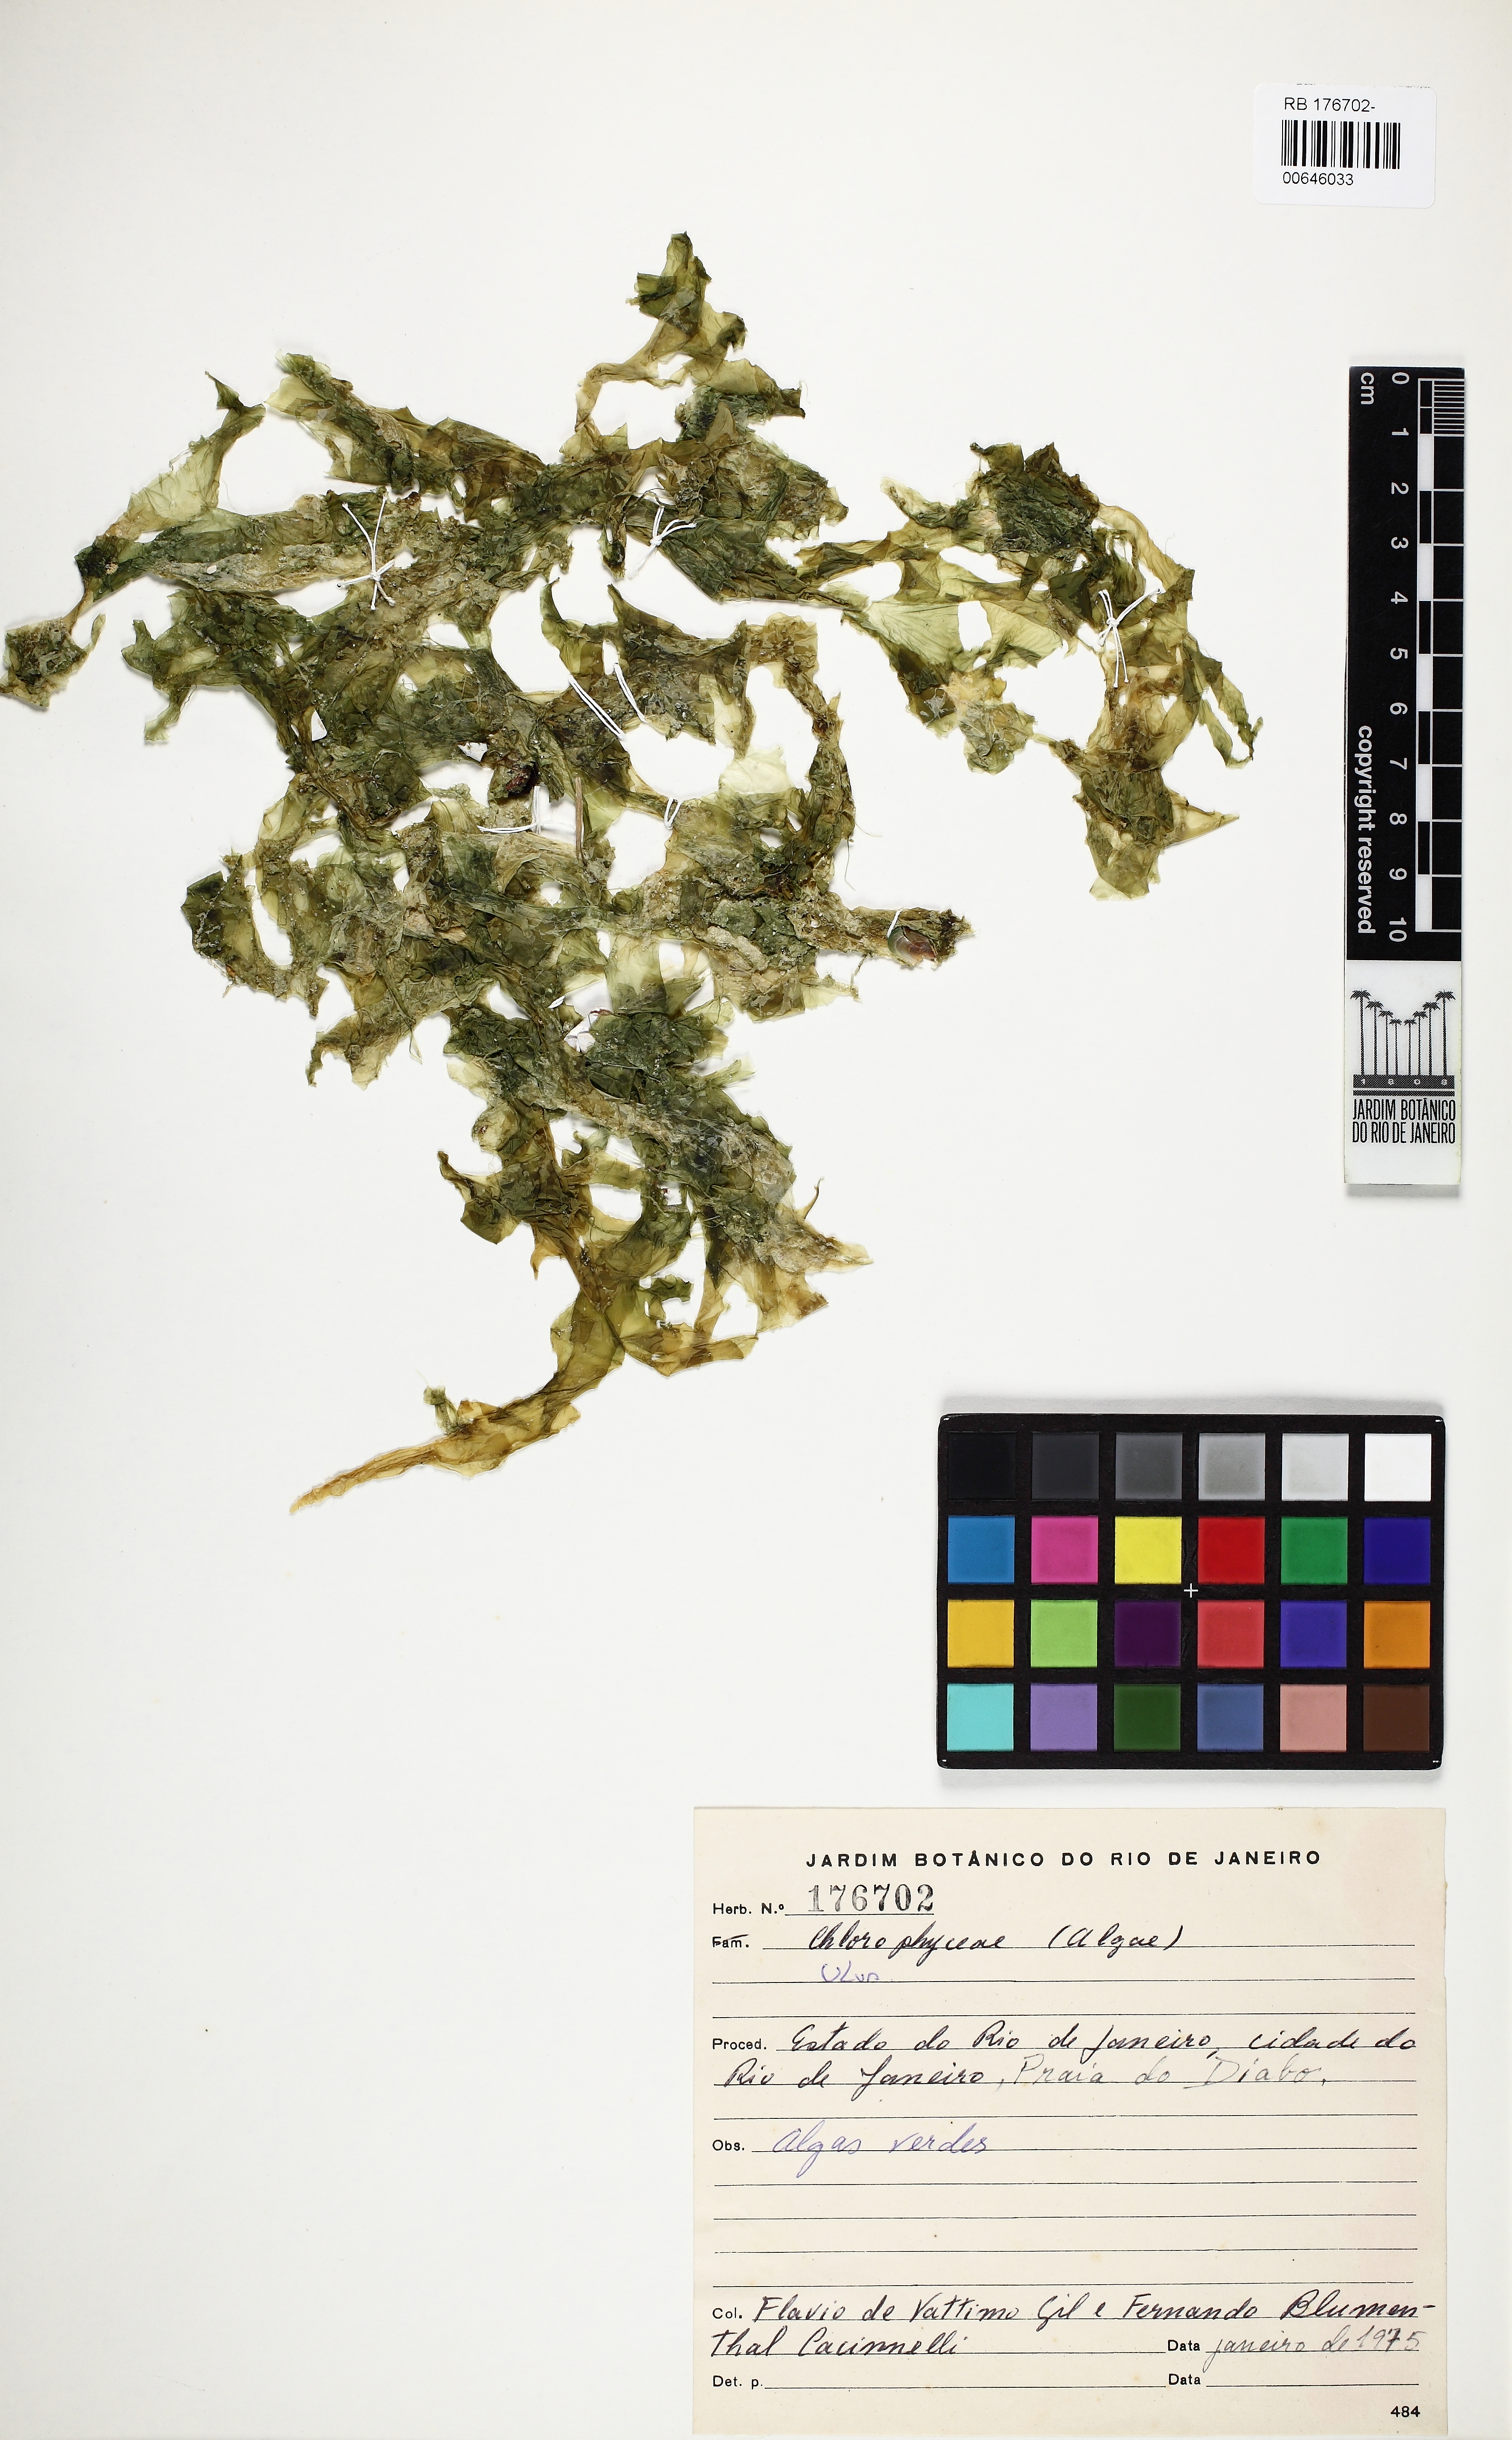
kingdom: Plantae
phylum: Chlorophyta
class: Ulvophyceae
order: Ulvales
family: Ulvaceae
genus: Ulva
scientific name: Ulva
